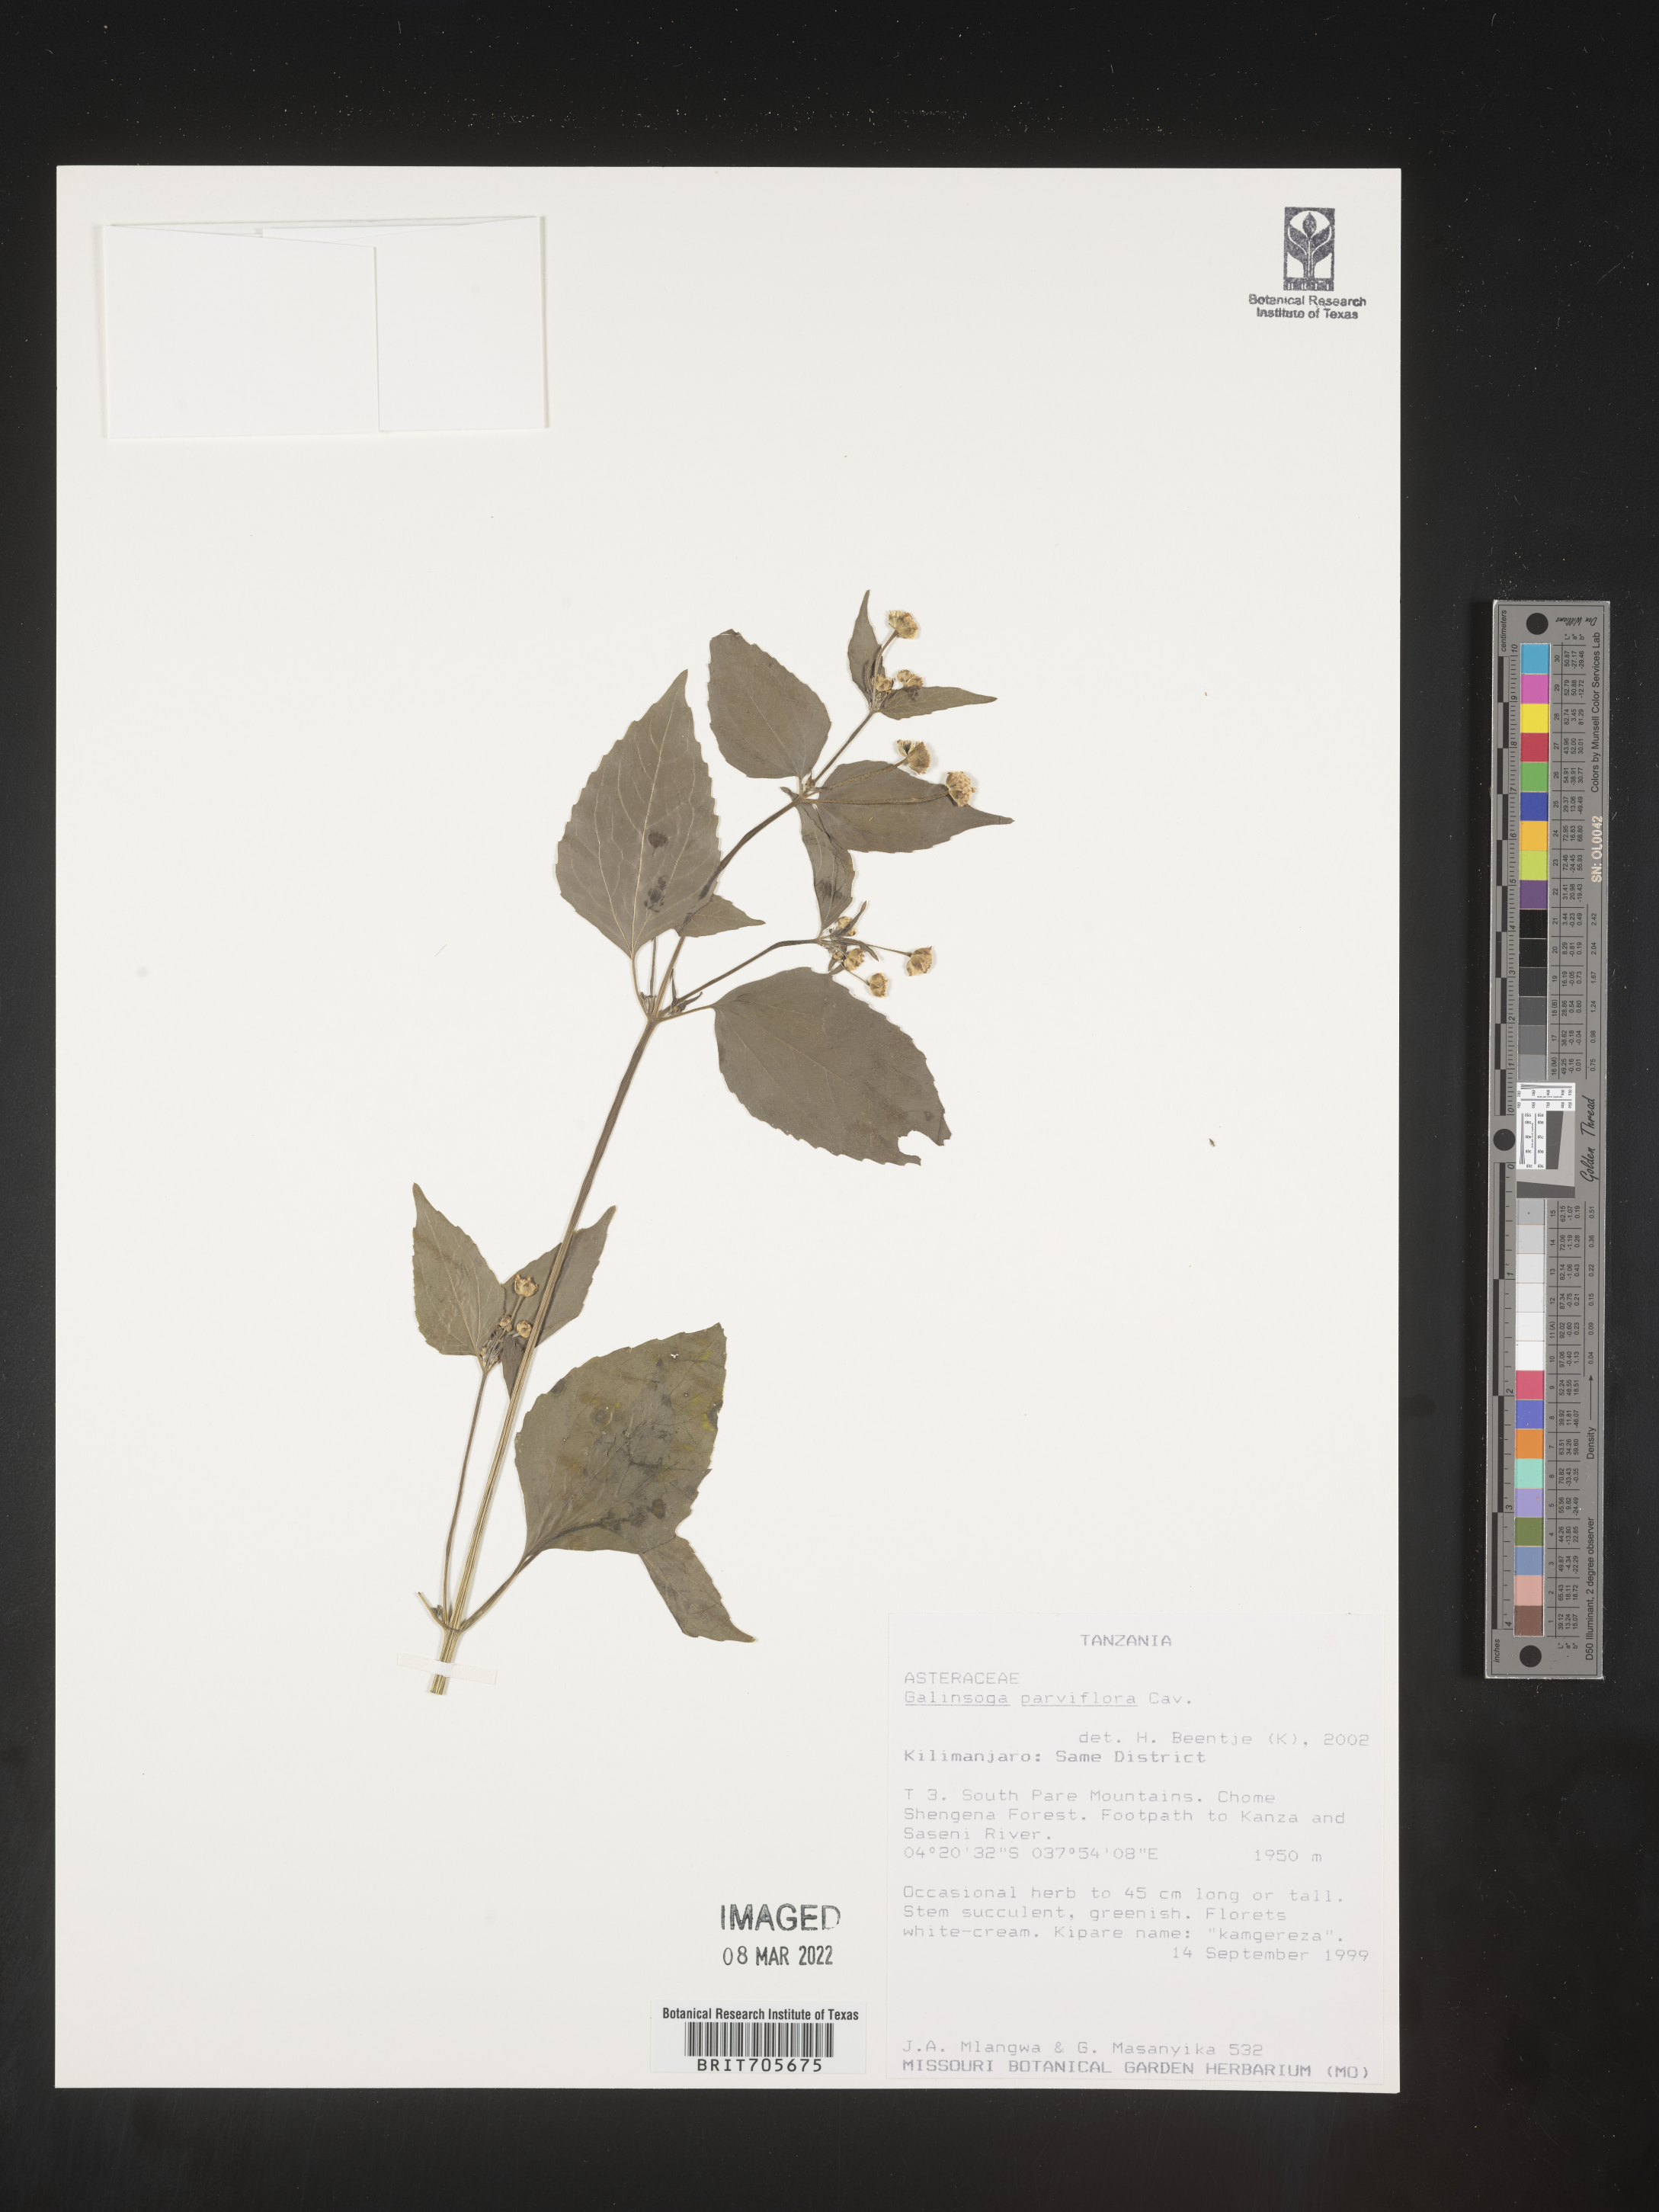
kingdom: Plantae
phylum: Tracheophyta
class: Magnoliopsida
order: Asterales
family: Asteraceae
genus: Galinsoga
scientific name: Galinsoga
